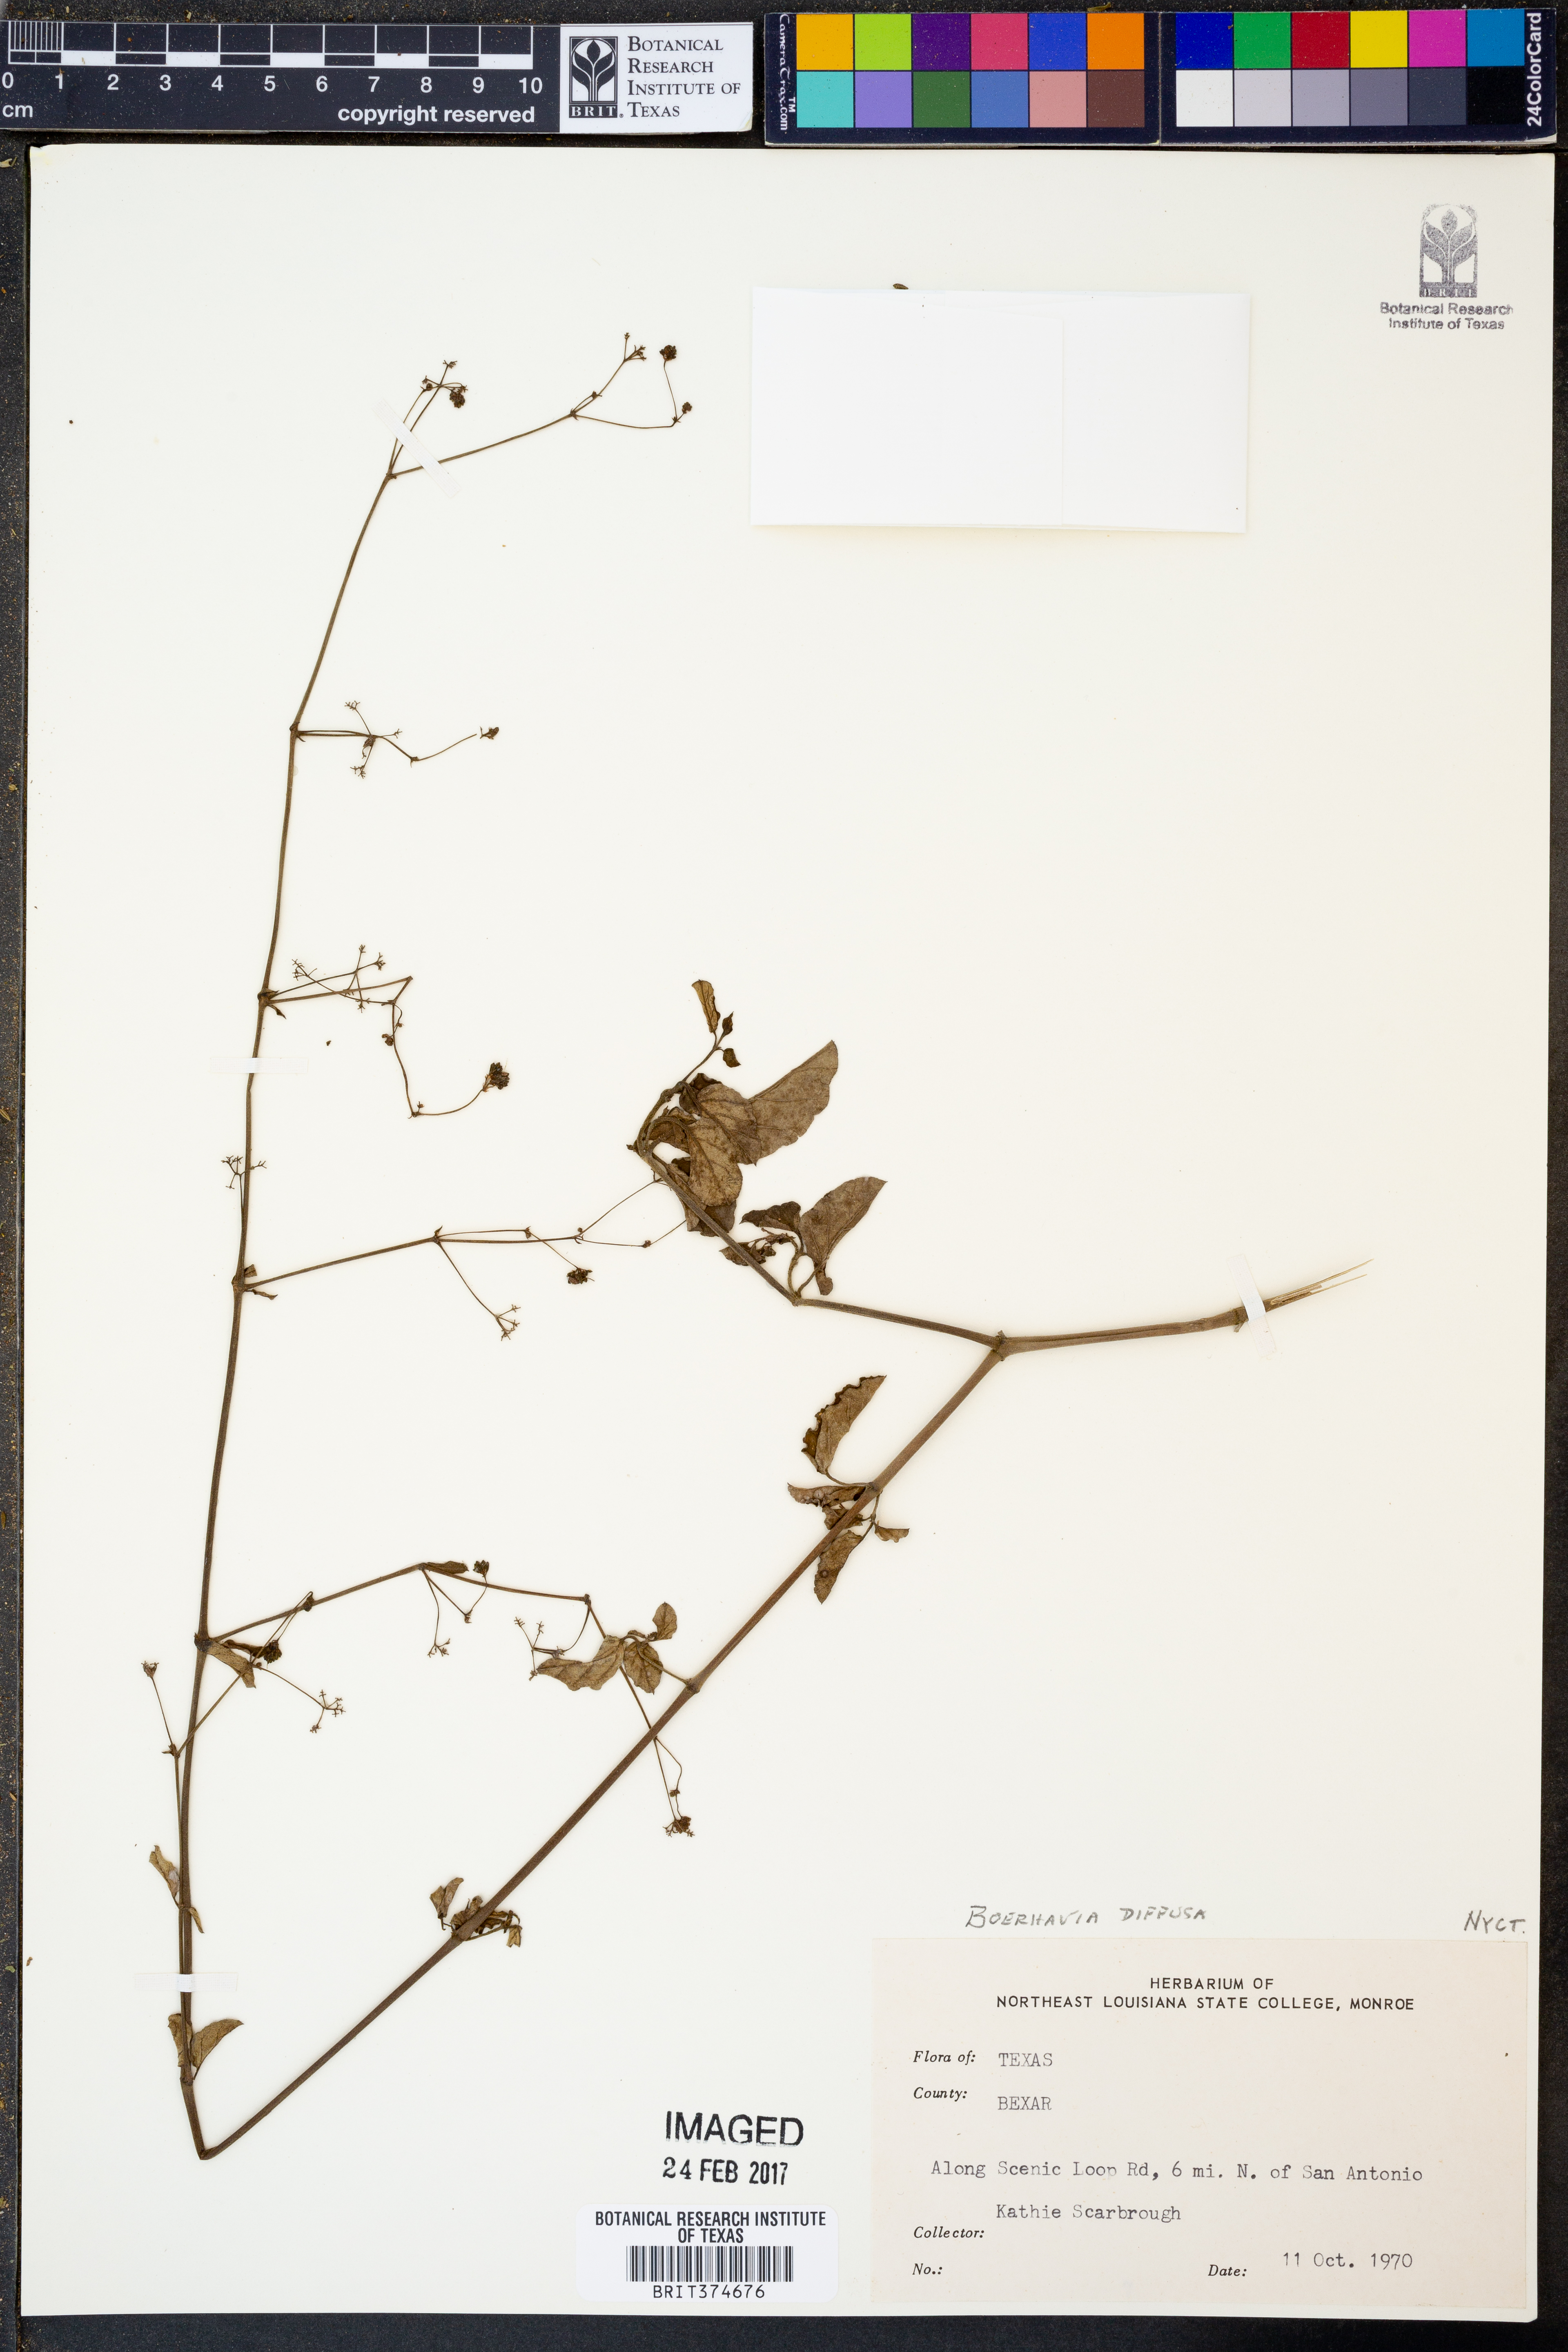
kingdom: Plantae
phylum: Tracheophyta
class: Magnoliopsida
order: Caryophyllales
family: Nyctaginaceae
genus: Boerhavia
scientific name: Boerhavia diffusa
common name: Red spiderling
